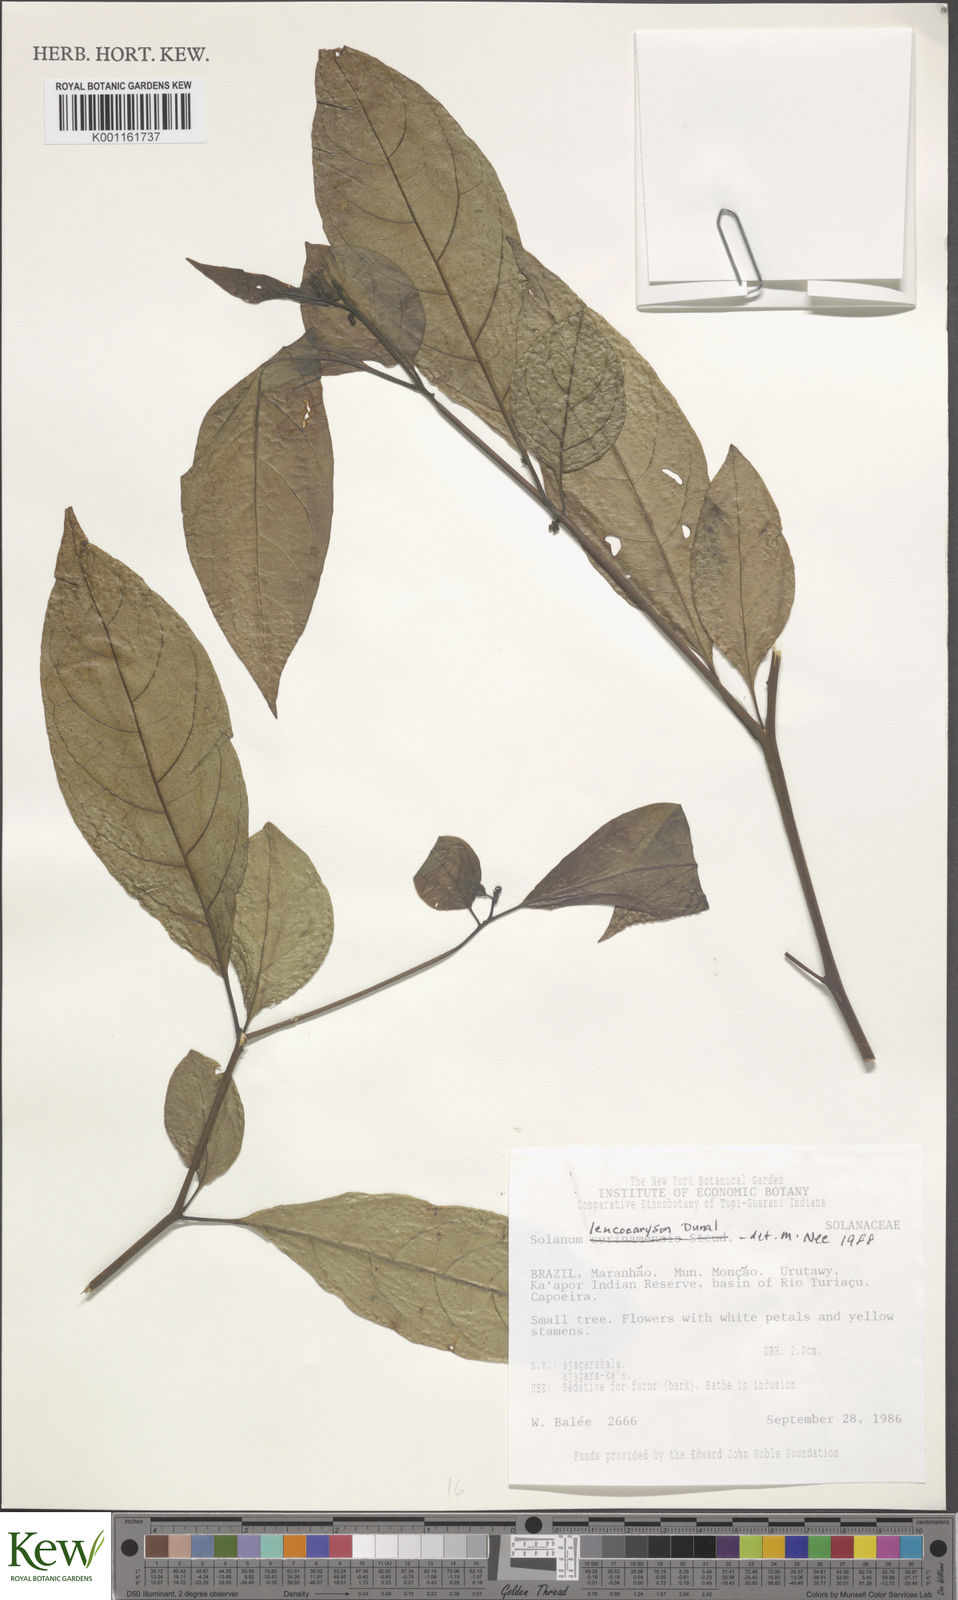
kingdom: Plantae
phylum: Tracheophyta
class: Magnoliopsida
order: Solanales
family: Solanaceae
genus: Solanum
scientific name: Solanum leucocarpon
